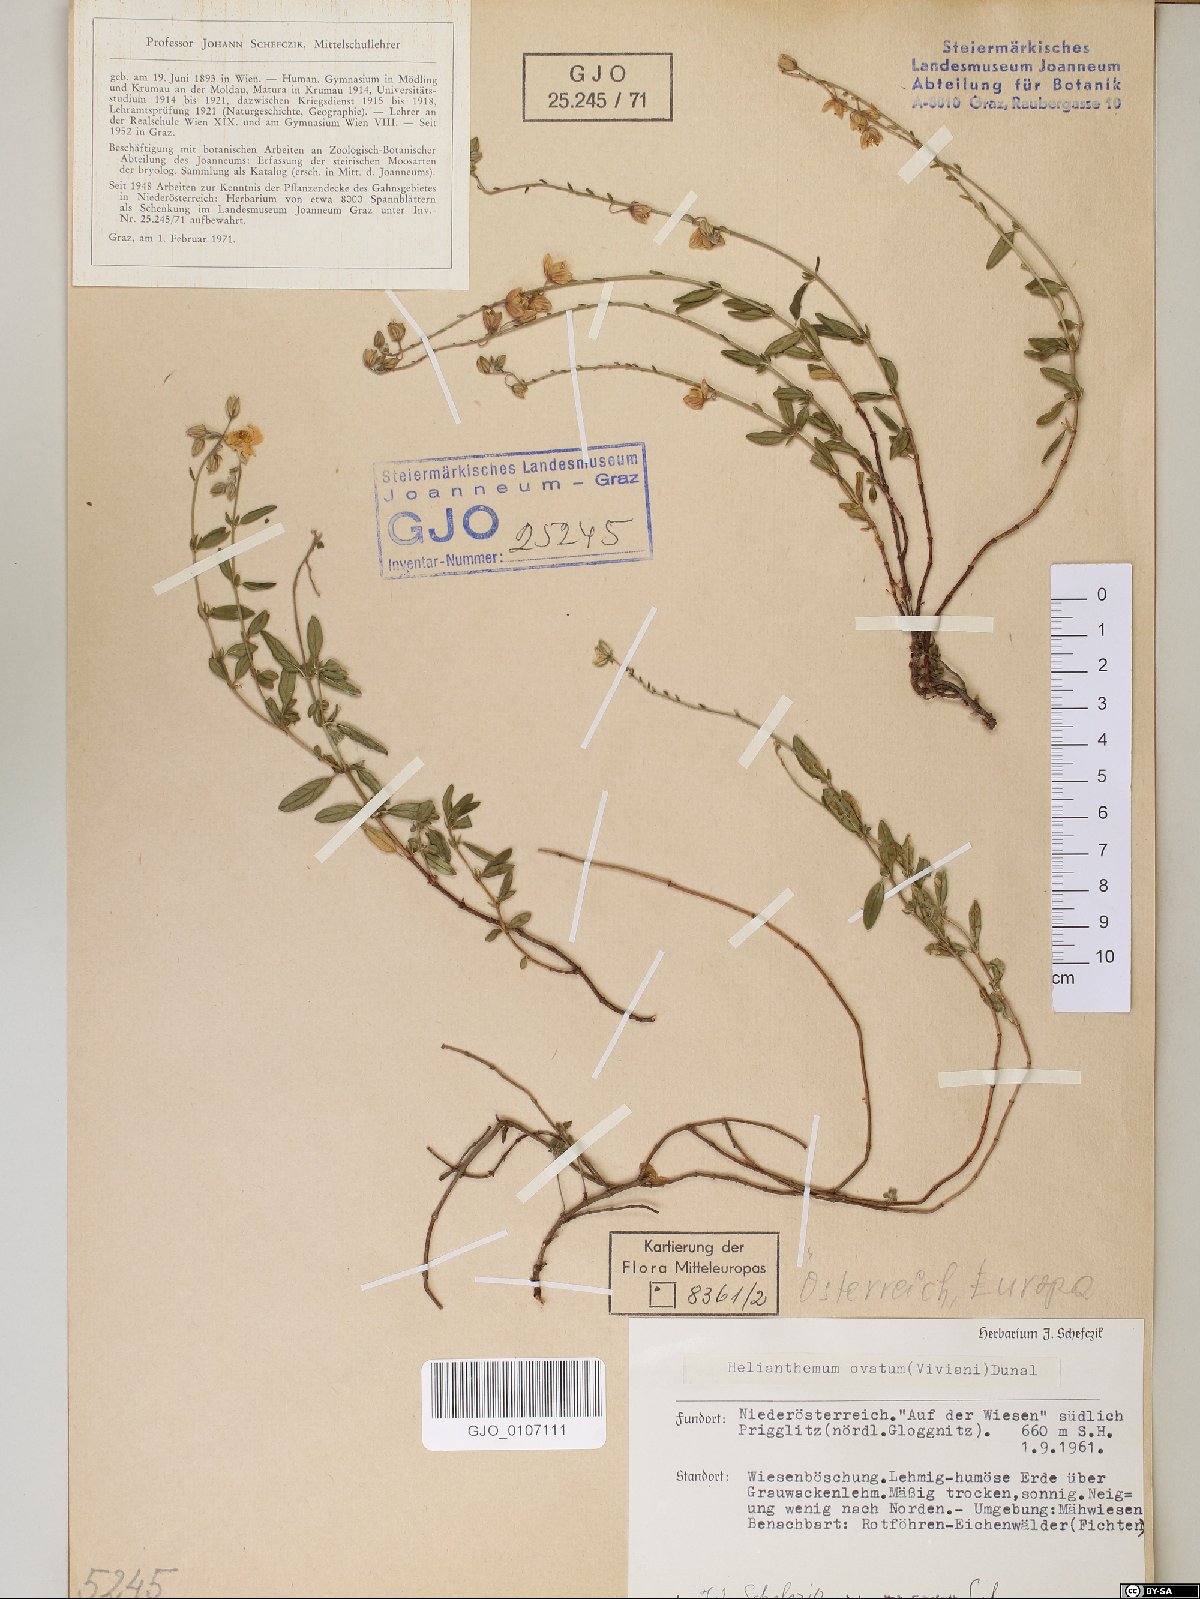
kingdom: Plantae
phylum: Tracheophyta
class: Magnoliopsida
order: Malvales
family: Cistaceae
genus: Helianthemum
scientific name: Helianthemum nummularium
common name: Common rock-rose
